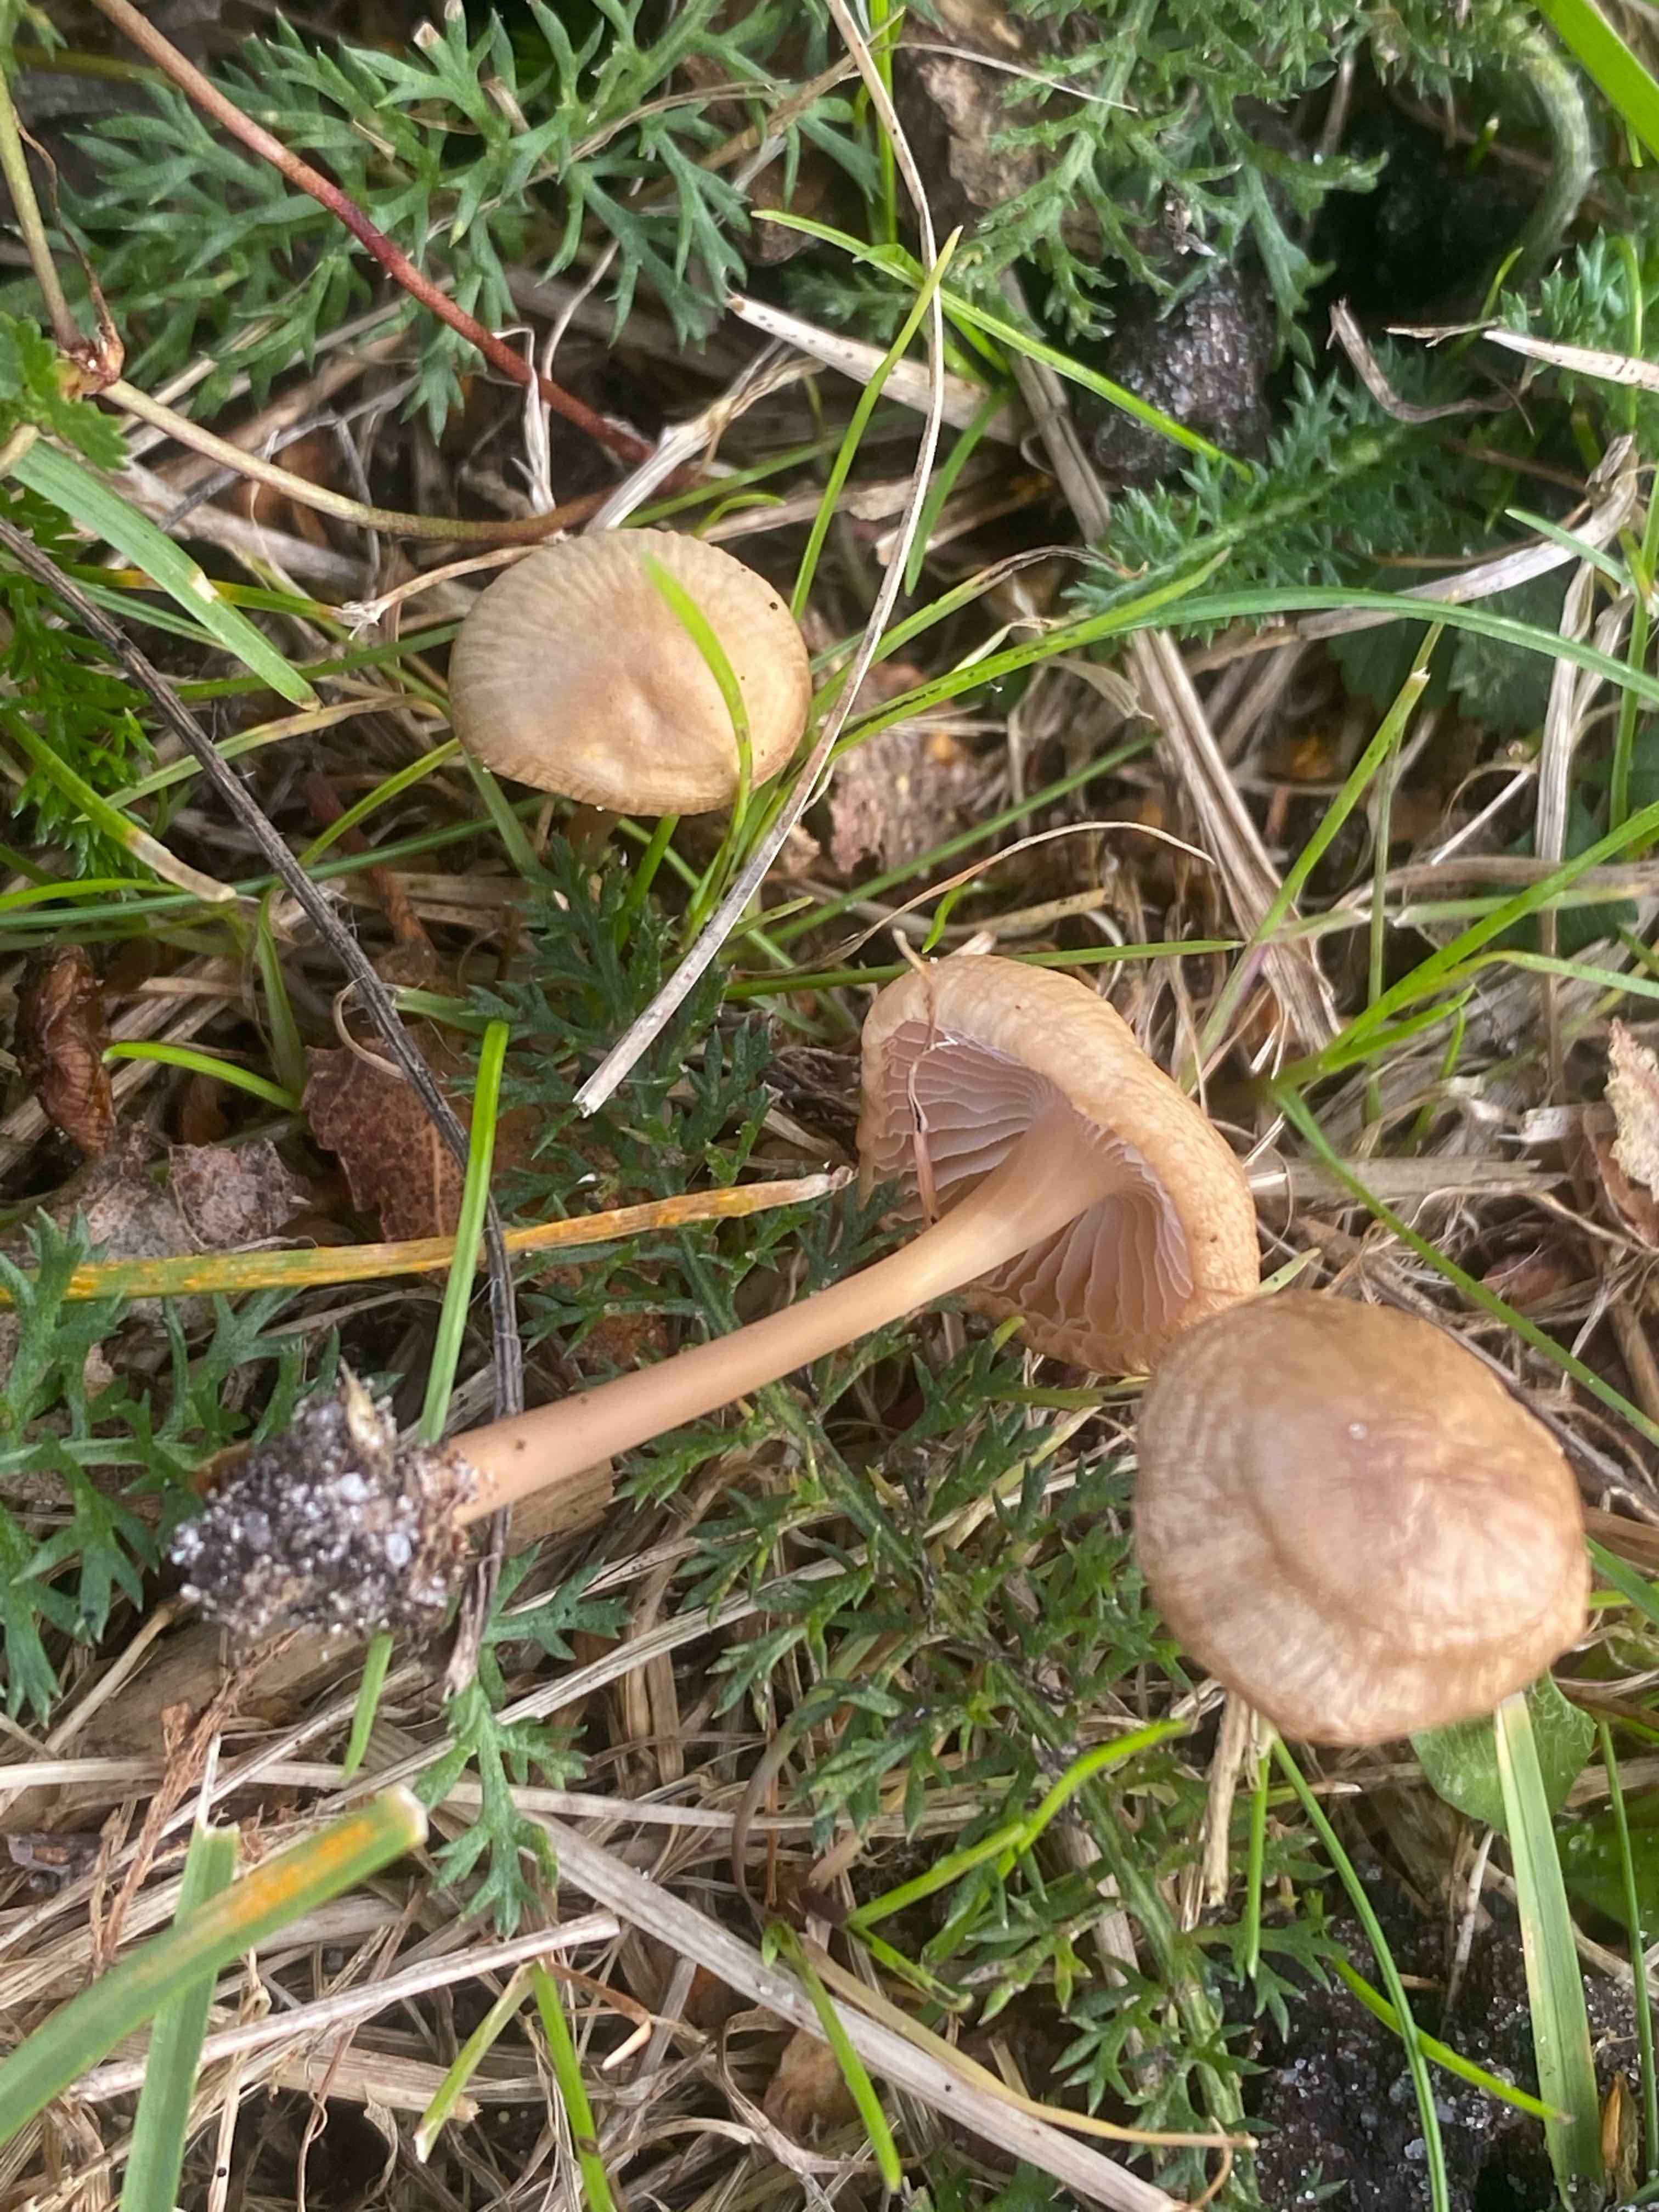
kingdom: Fungi
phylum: Basidiomycota
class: Agaricomycetes
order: Agaricales
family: Mycenaceae
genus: Mycena
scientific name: Mycena
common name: huesvamp
